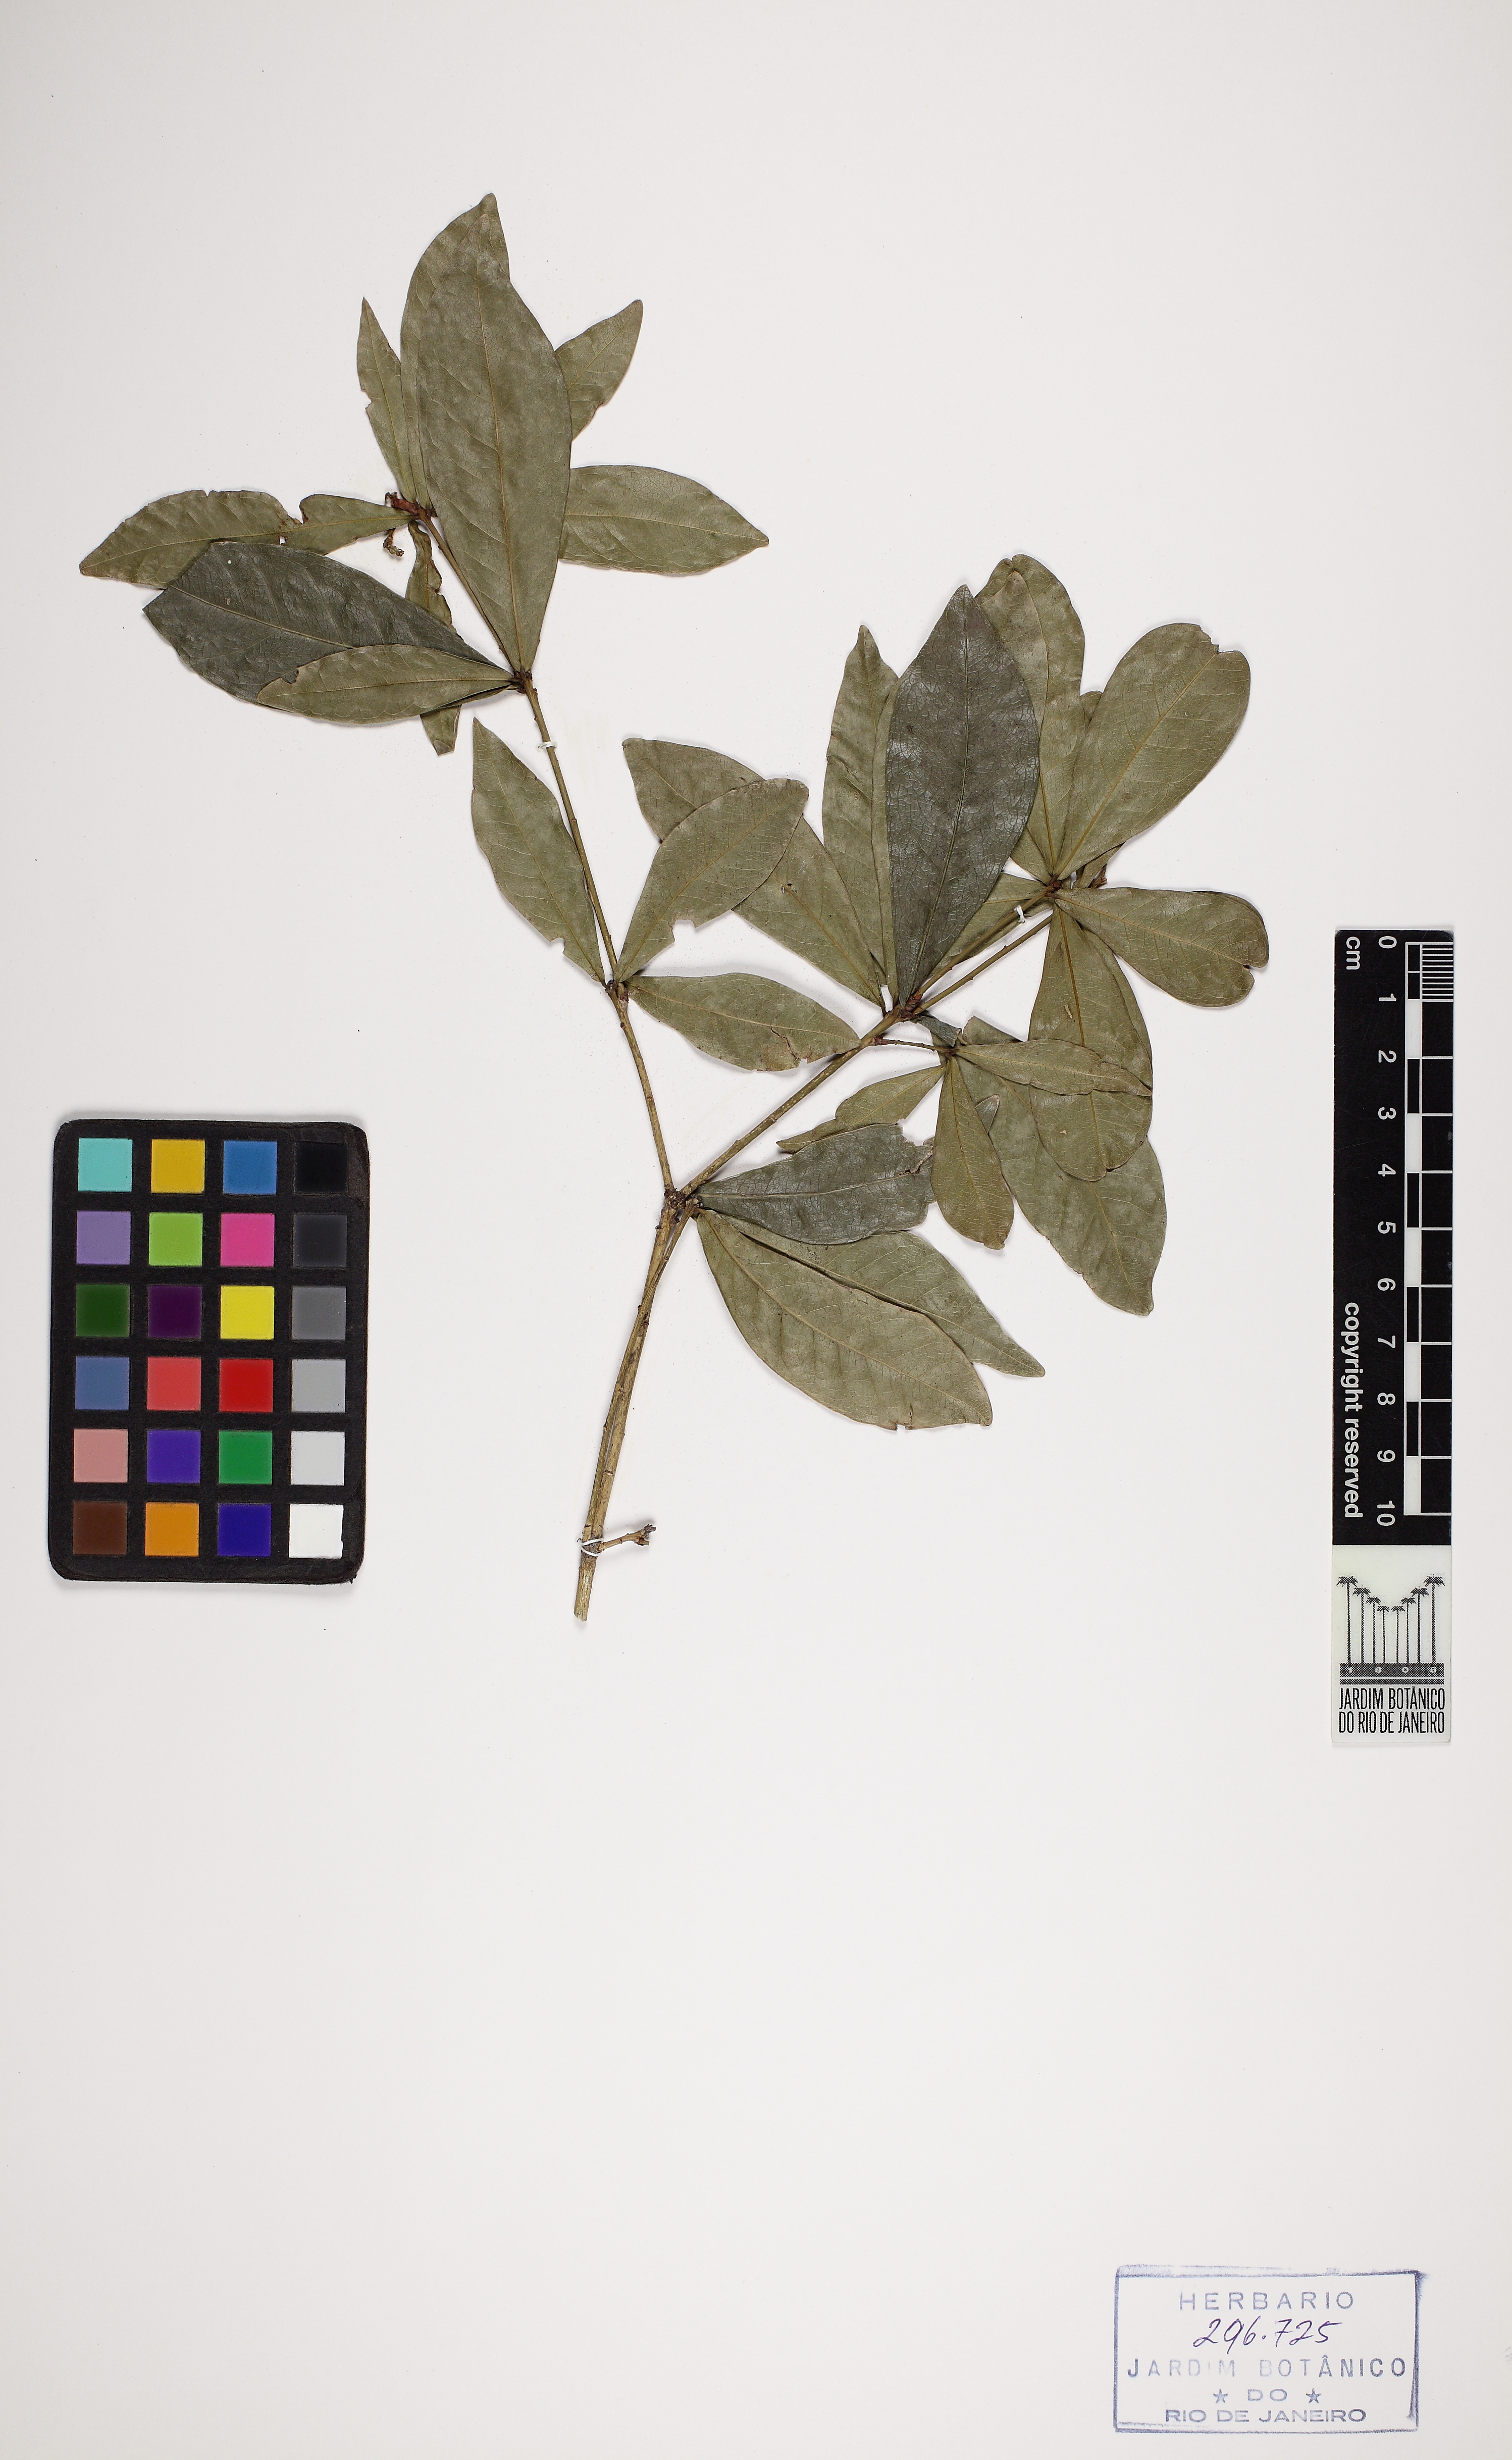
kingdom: Plantae
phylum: Tracheophyta
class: Magnoliopsida
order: Malpighiales
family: Euphorbiaceae
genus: Actinostemon
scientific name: Actinostemon verticillatus
